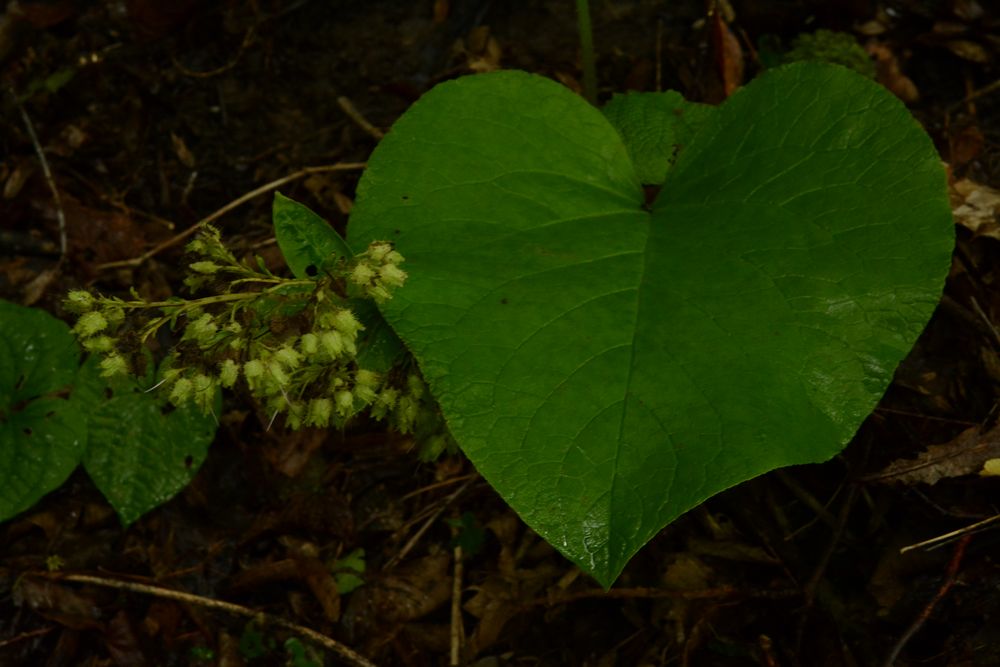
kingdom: Plantae
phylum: Tracheophyta
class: Magnoliopsida
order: Boraginales
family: Boraginaceae
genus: Trachystemon
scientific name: Trachystemon orientale
